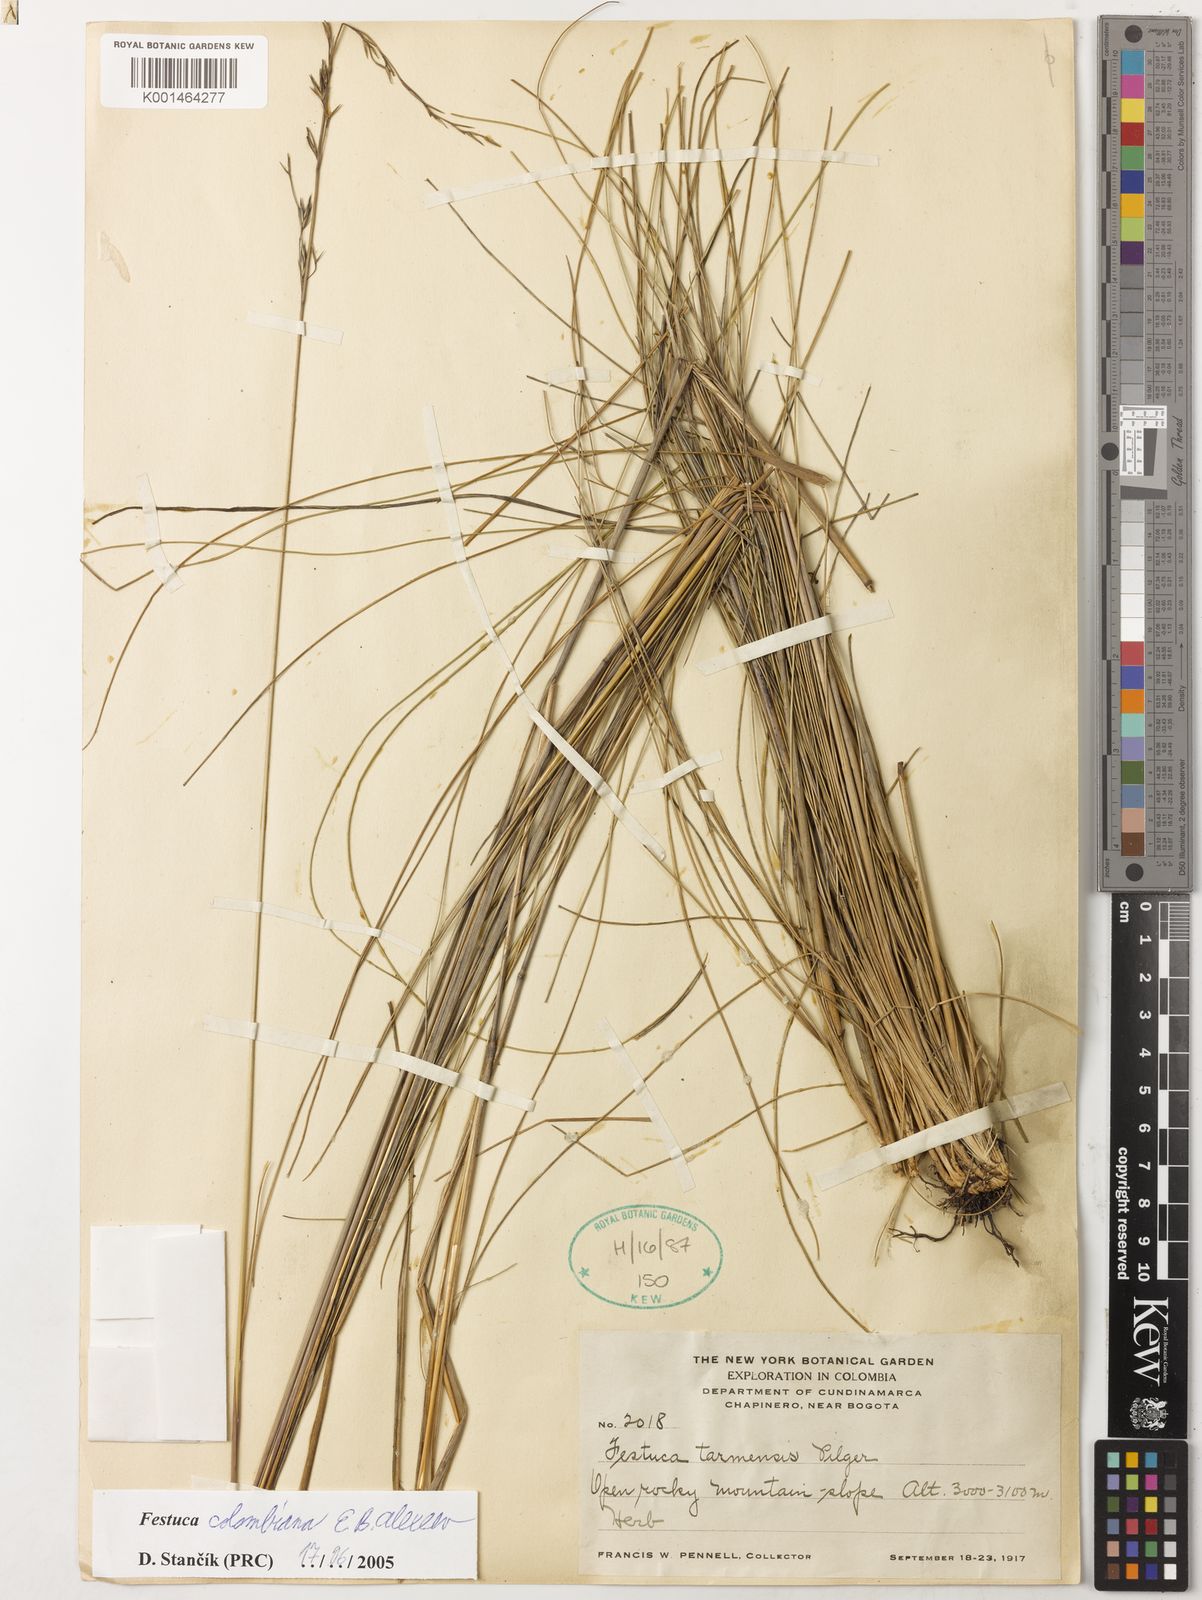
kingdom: Plantae
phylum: Tracheophyta
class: Liliopsida
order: Poales
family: Poaceae
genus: Festuca
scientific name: Festuca colombiana
